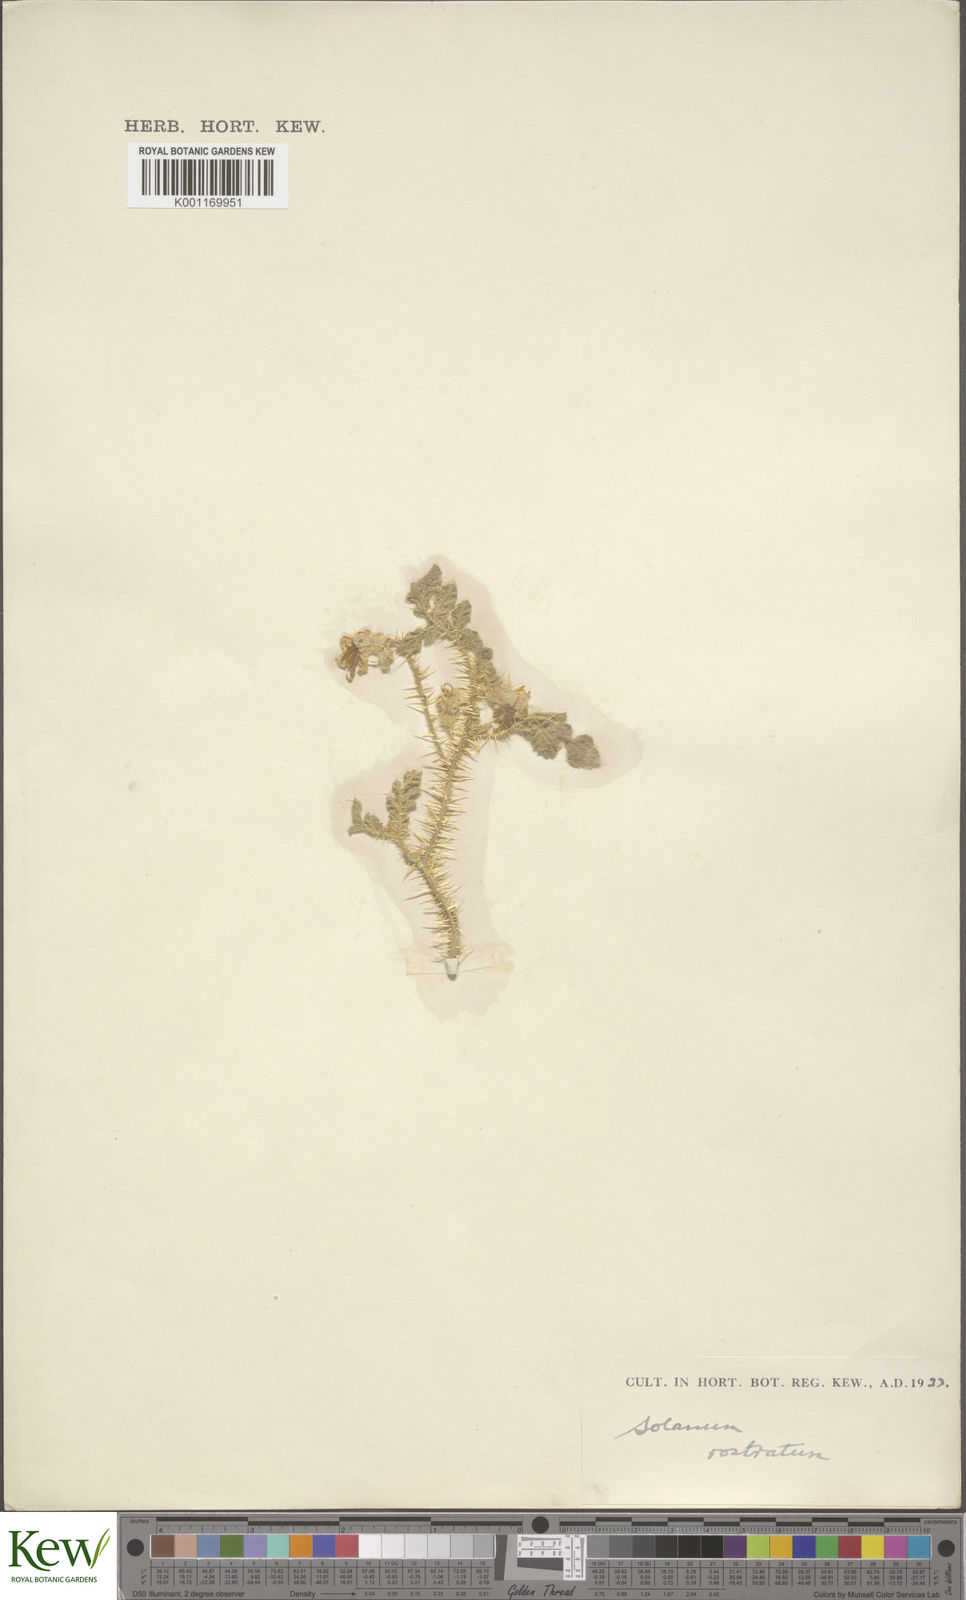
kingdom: Plantae
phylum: Tracheophyta
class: Magnoliopsida
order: Solanales
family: Solanaceae
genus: Solanum
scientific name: Solanum angustifolium
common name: Buffalobur nightshade
